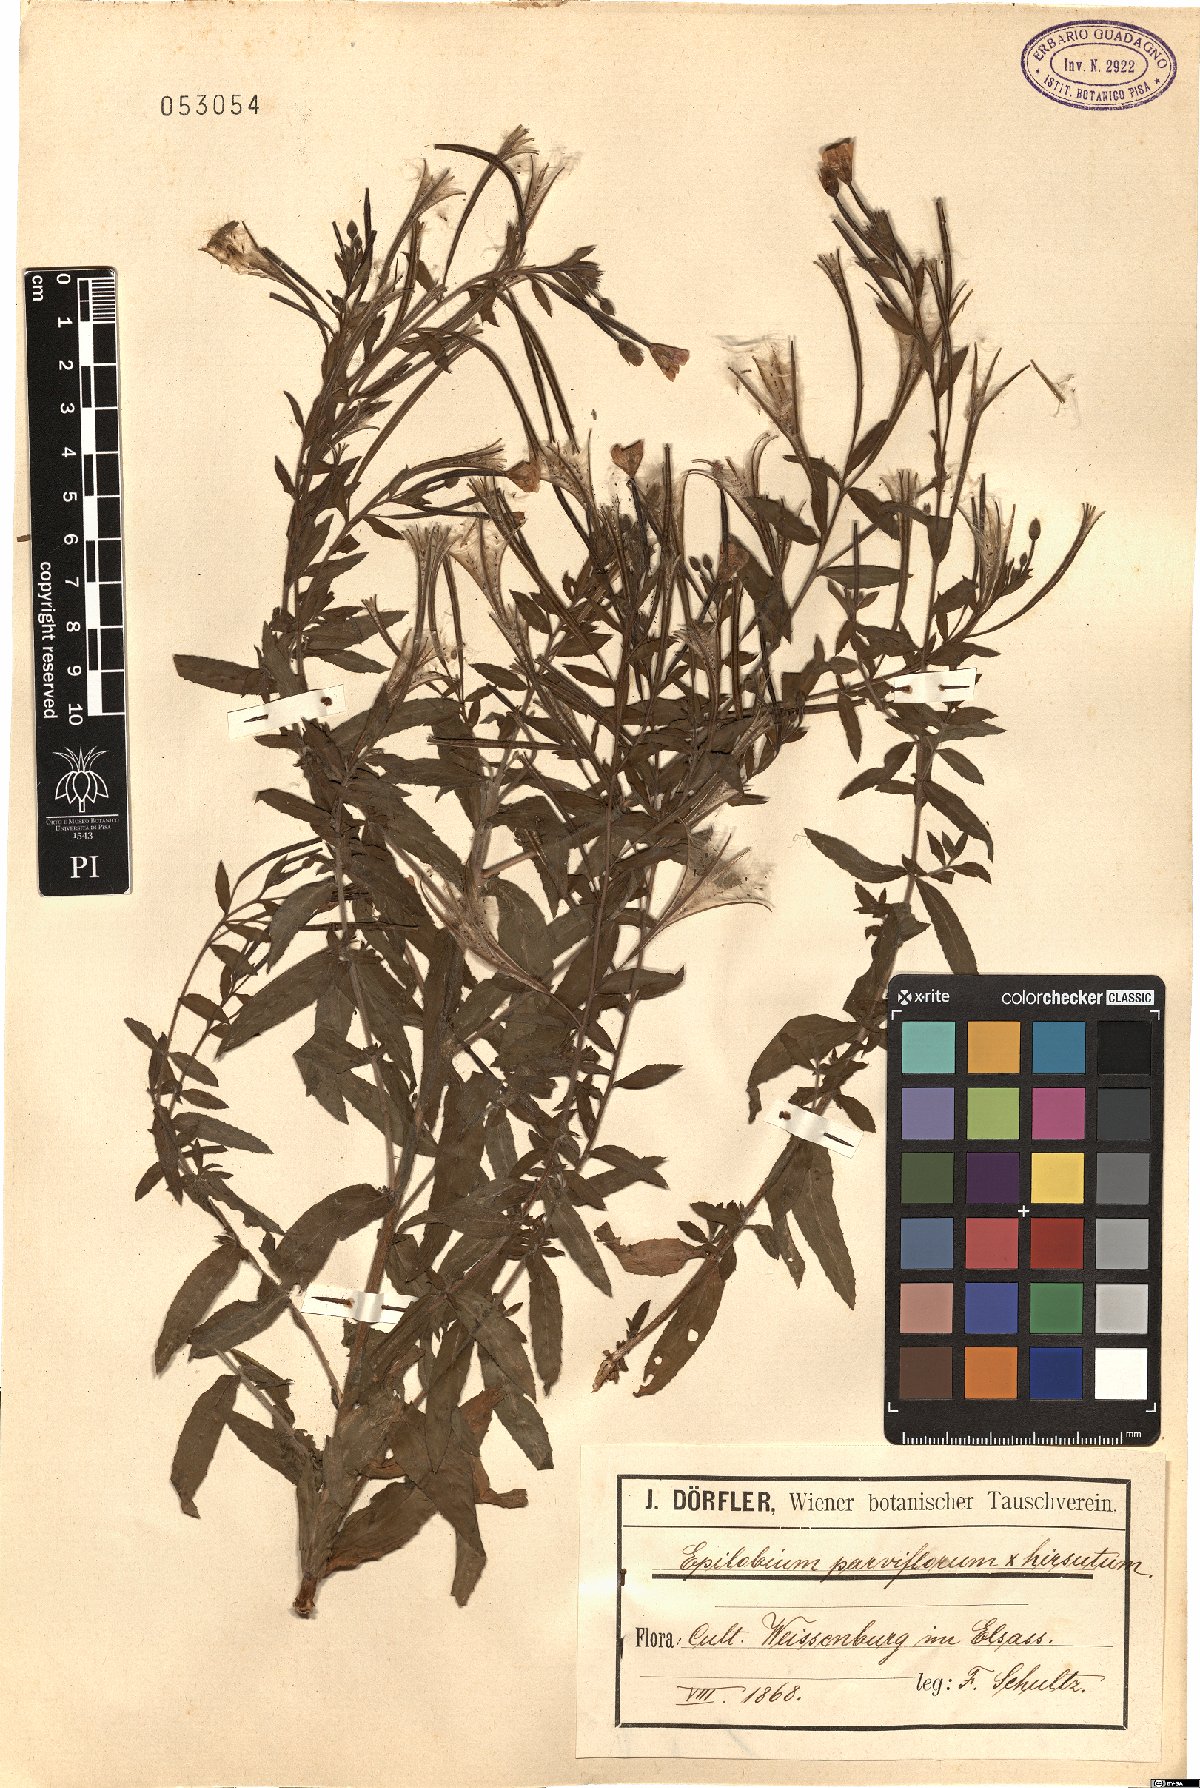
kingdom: Plantae
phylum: Tracheophyta
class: Magnoliopsida
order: Myrtales
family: Onagraceae
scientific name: Onagraceae
